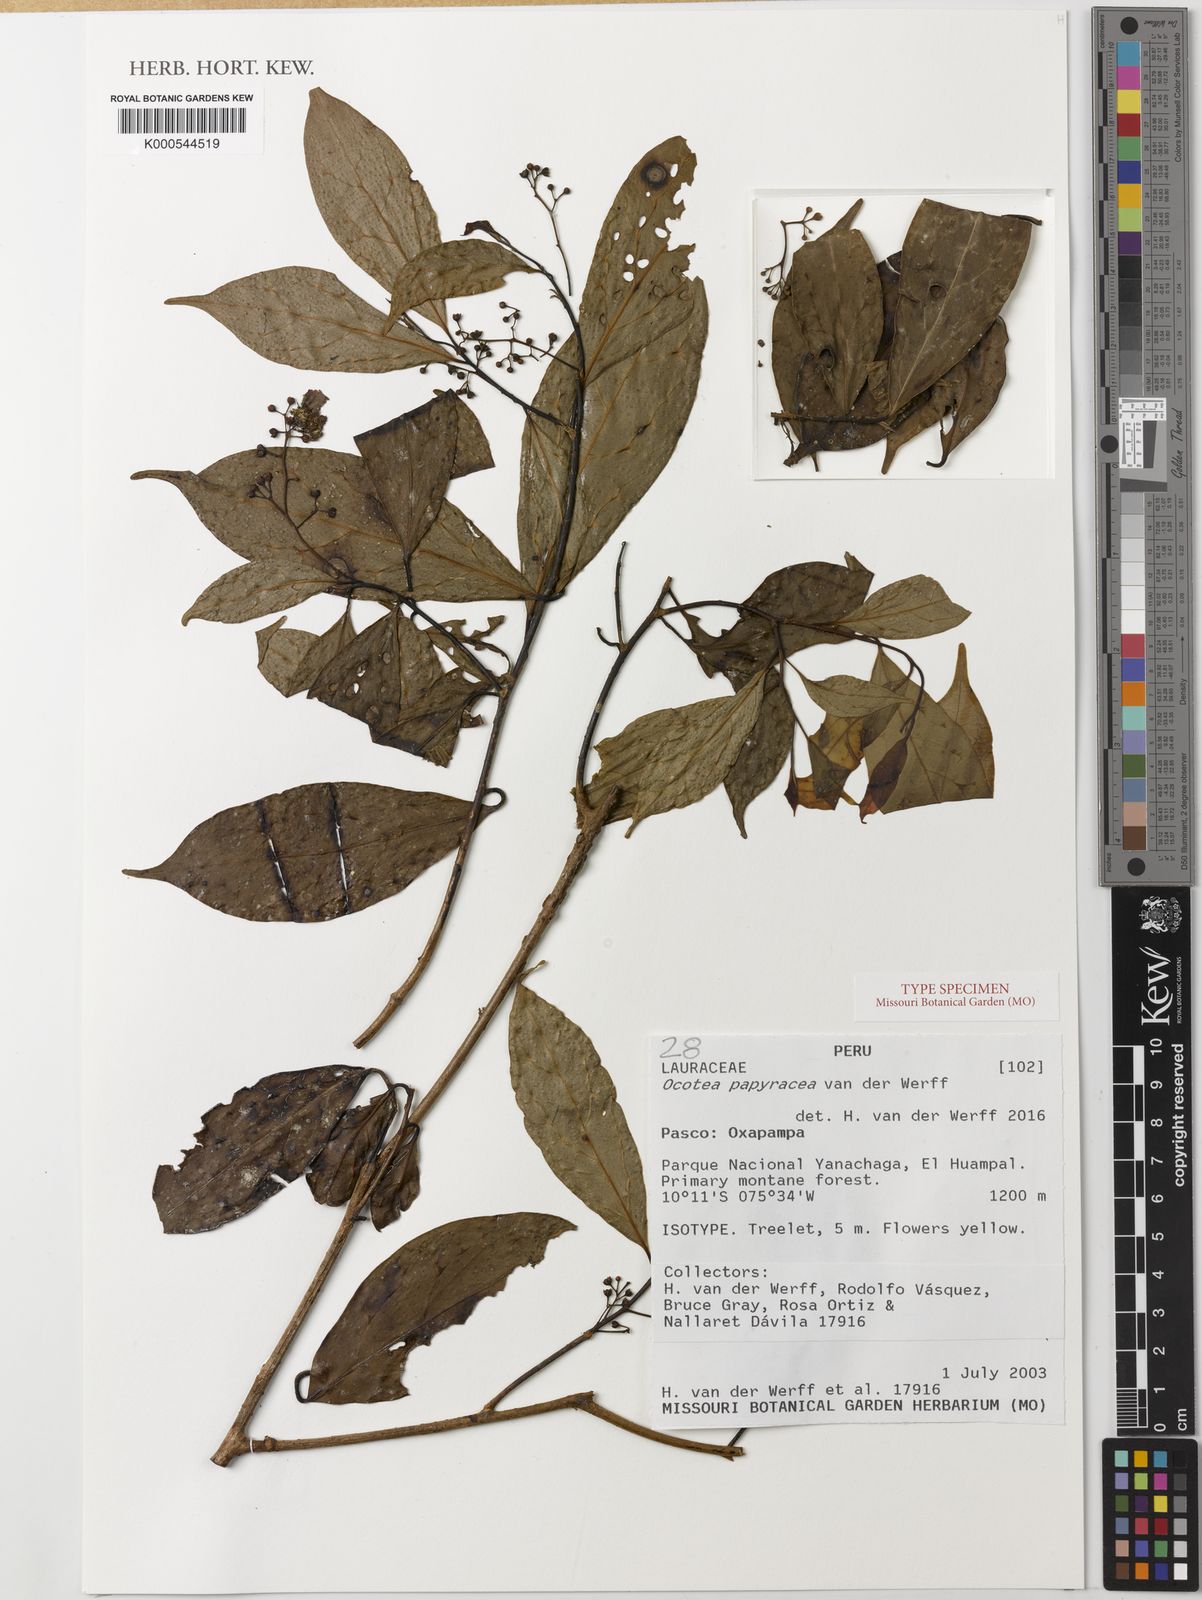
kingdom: Plantae
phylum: Tracheophyta
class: Magnoliopsida
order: Laurales
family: Lauraceae
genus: Ocotea
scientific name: Ocotea papyracea
